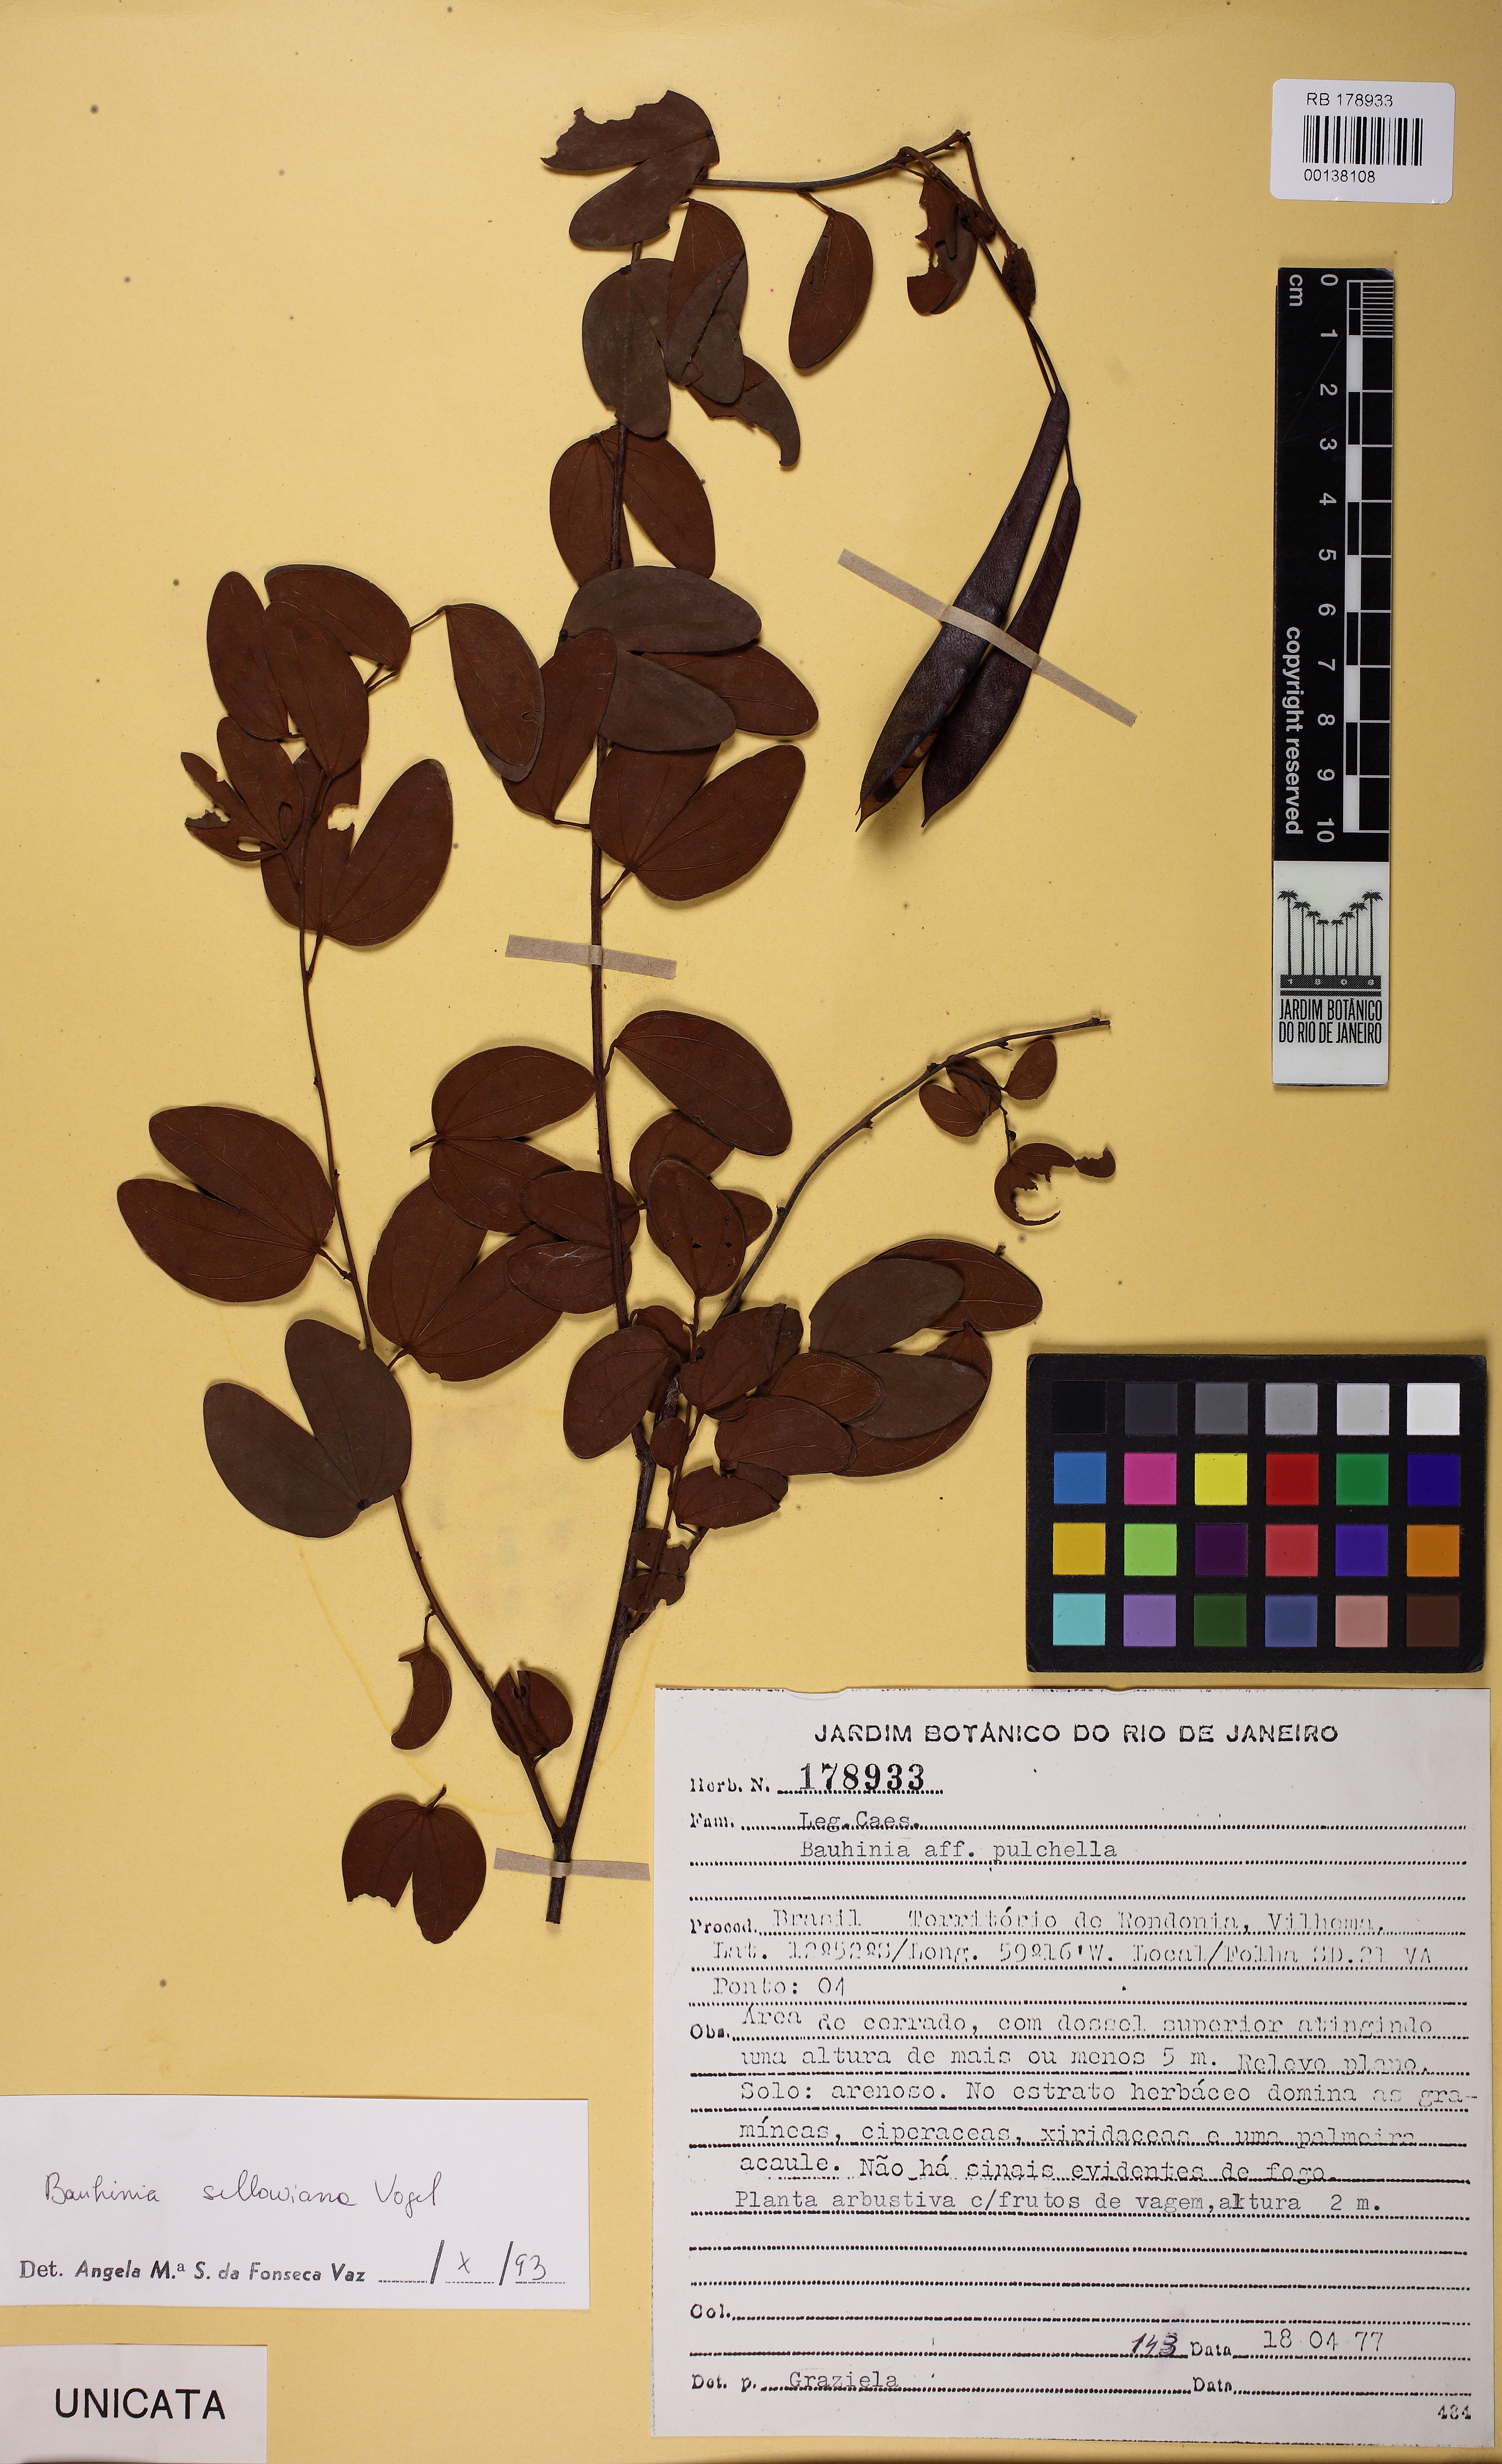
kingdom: Plantae
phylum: Tracheophyta
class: Magnoliopsida
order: Fabales
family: Fabaceae
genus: Bauhinia
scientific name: Bauhinia pulchella
